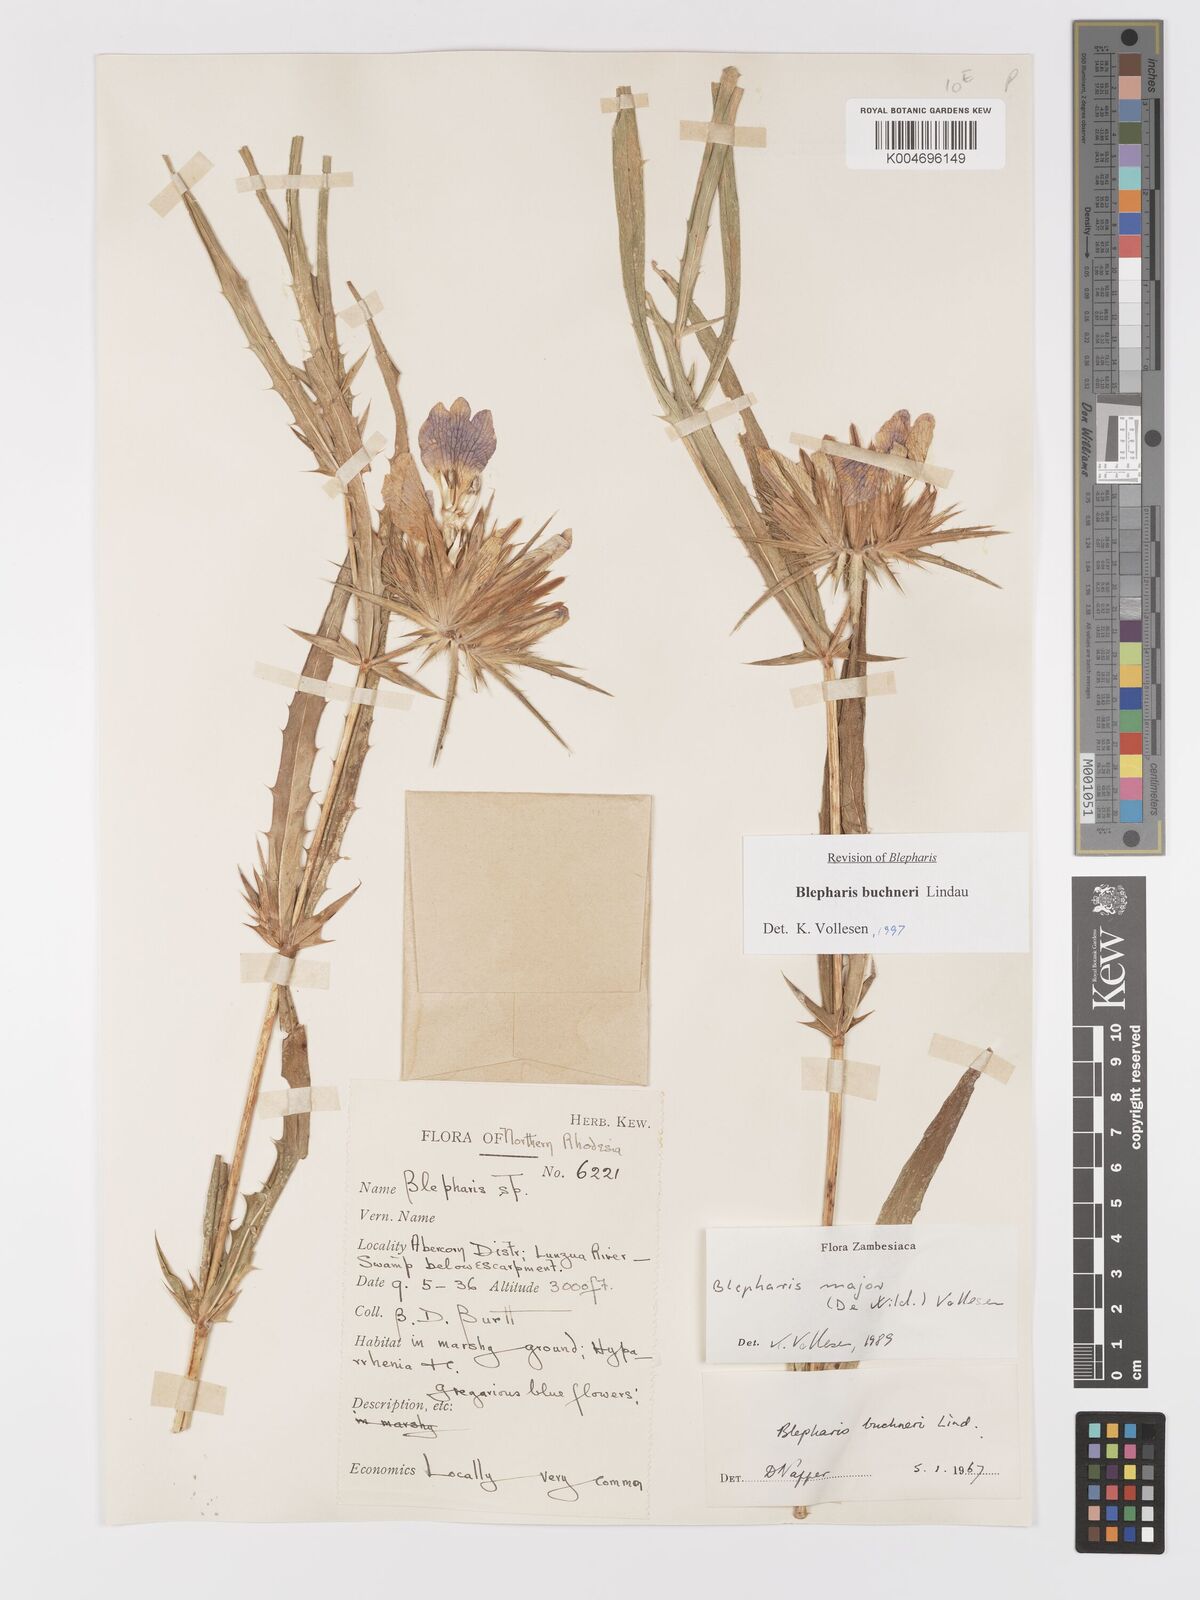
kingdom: Plantae
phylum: Tracheophyta
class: Magnoliopsida
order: Lamiales
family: Acanthaceae
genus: Blepharis
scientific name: Blepharis buchneri
